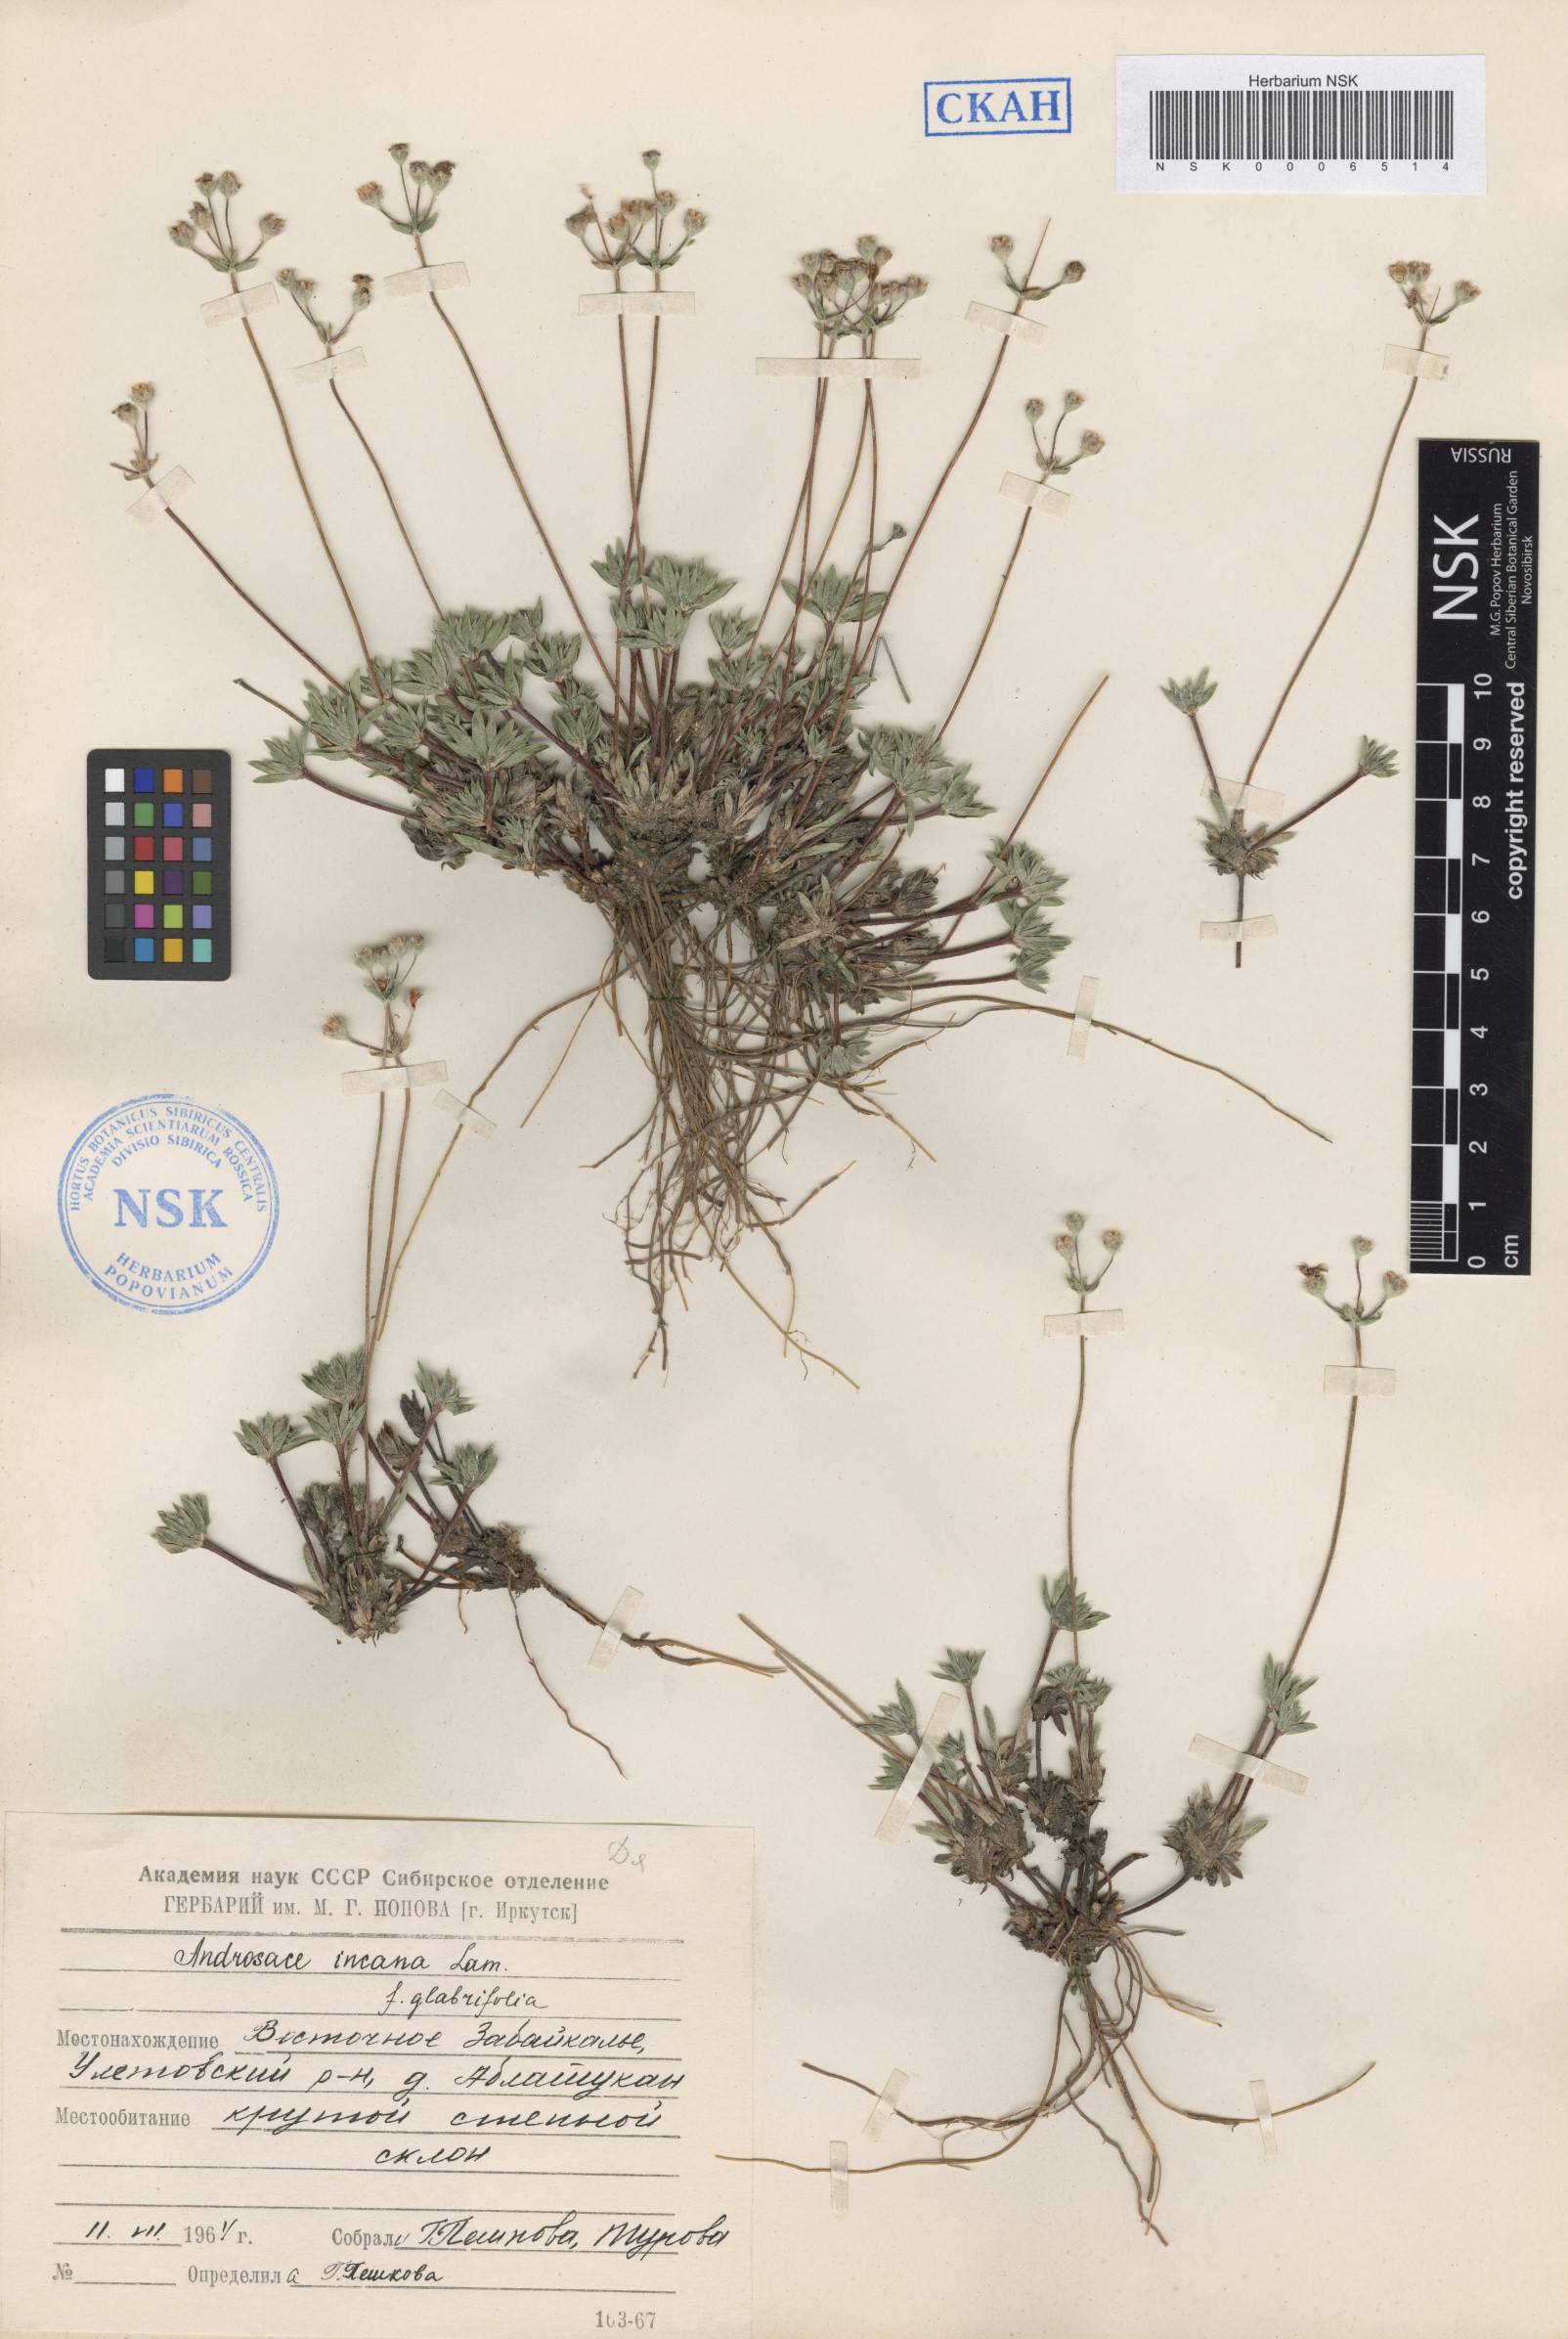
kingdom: Plantae
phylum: Tracheophyta
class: Magnoliopsida
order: Ericales
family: Primulaceae
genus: Androsace
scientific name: Androsace incana
